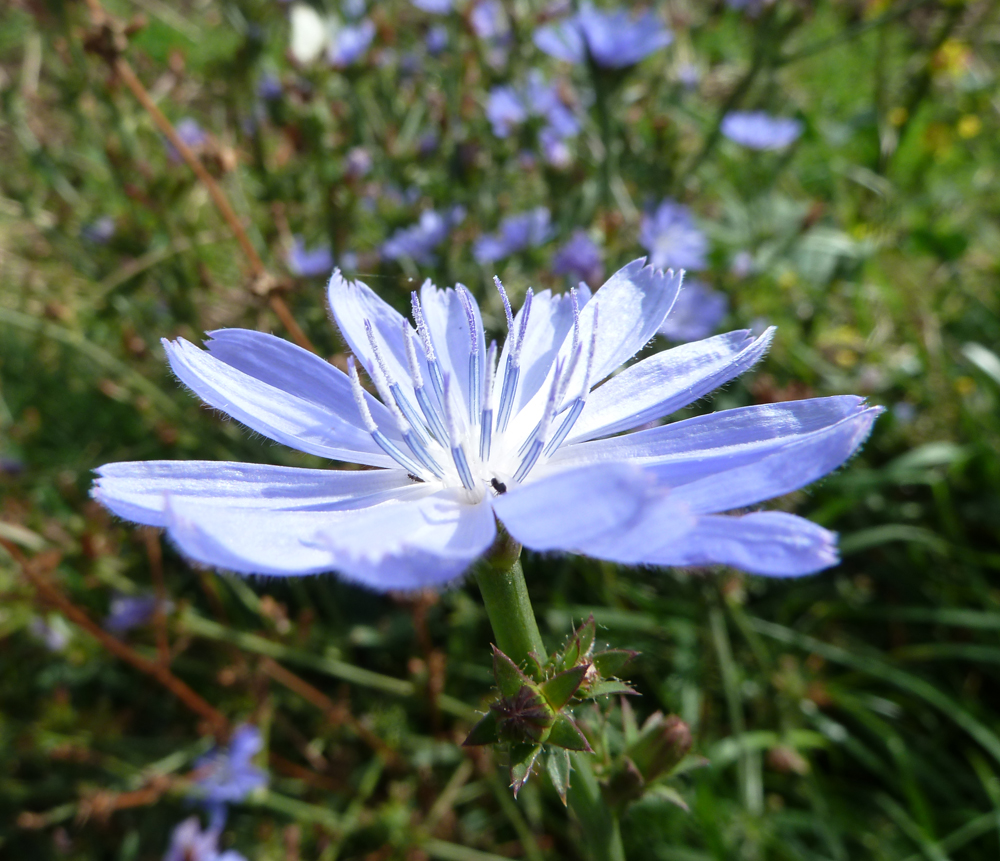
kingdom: Plantae
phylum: Tracheophyta
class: Magnoliopsida
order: Asterales
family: Asteraceae
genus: Cichorium
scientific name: Cichorium intybus
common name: Chicory
